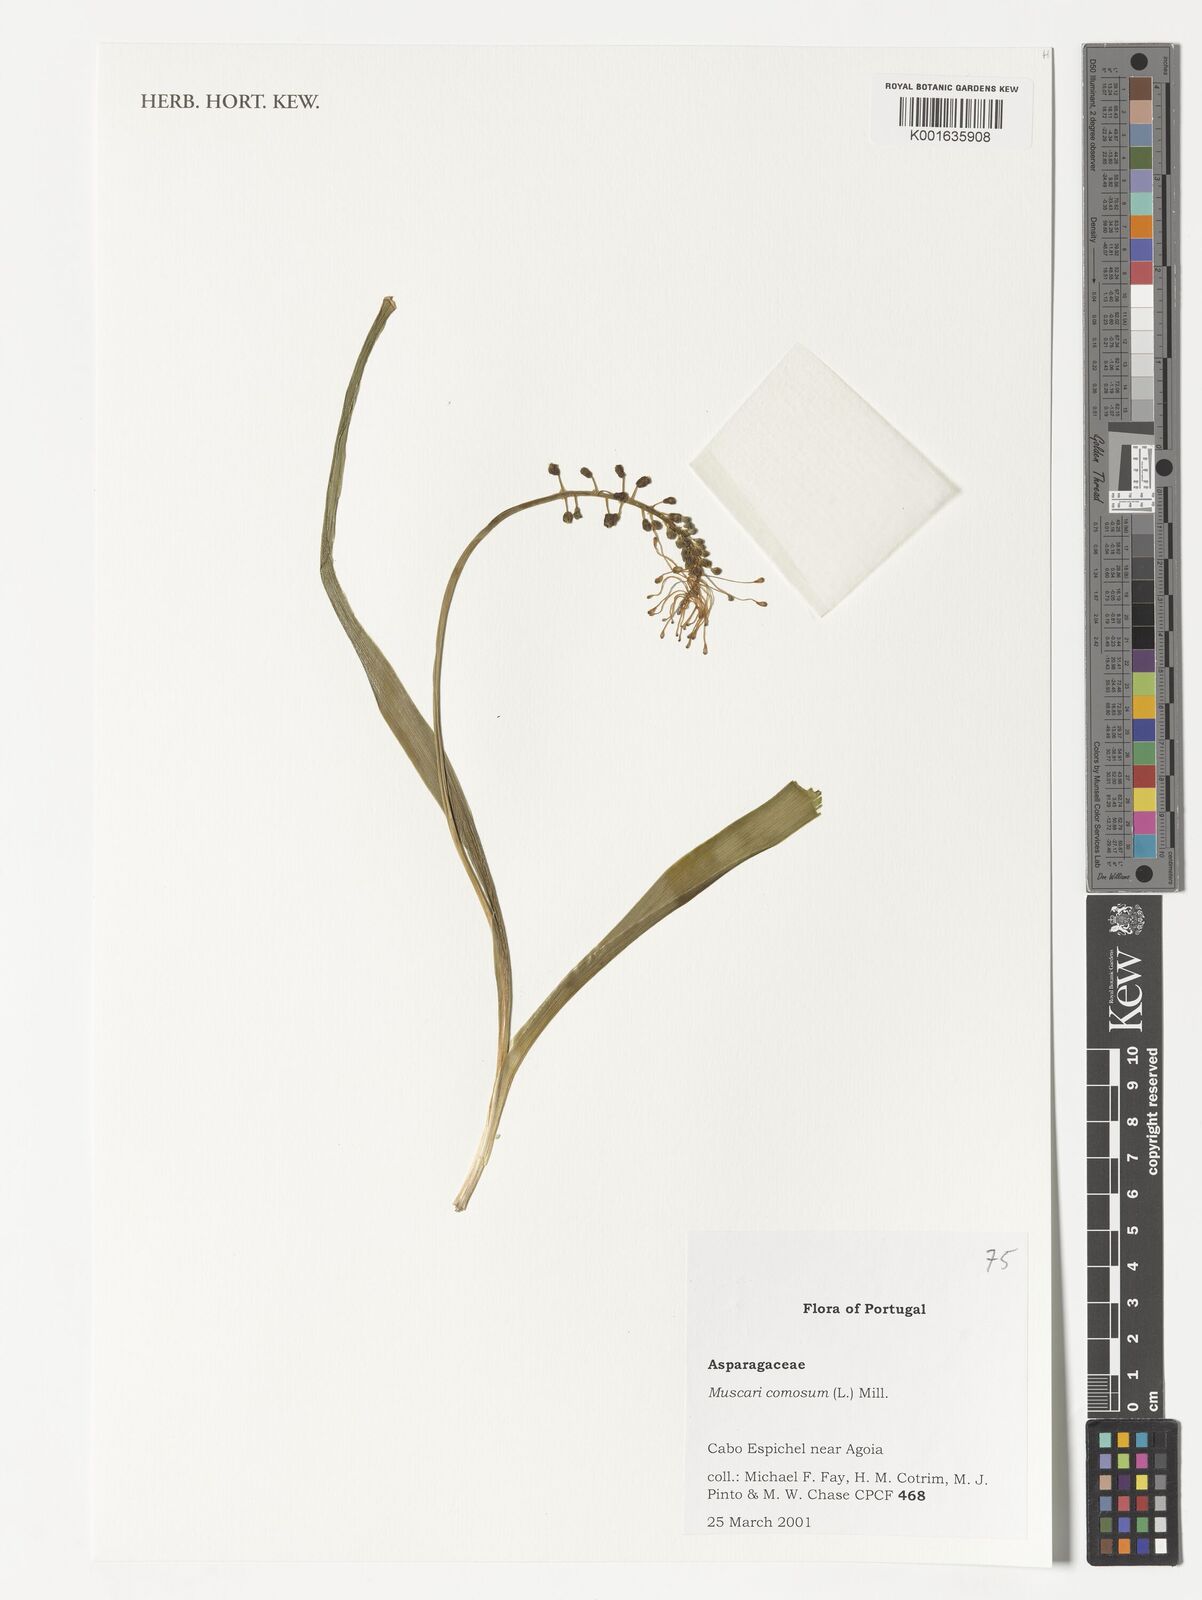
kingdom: Plantae
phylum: Tracheophyta
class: Liliopsida
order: Asparagales
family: Asparagaceae
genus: Muscari
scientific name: Muscari comosum
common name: Tassel hyacinth
